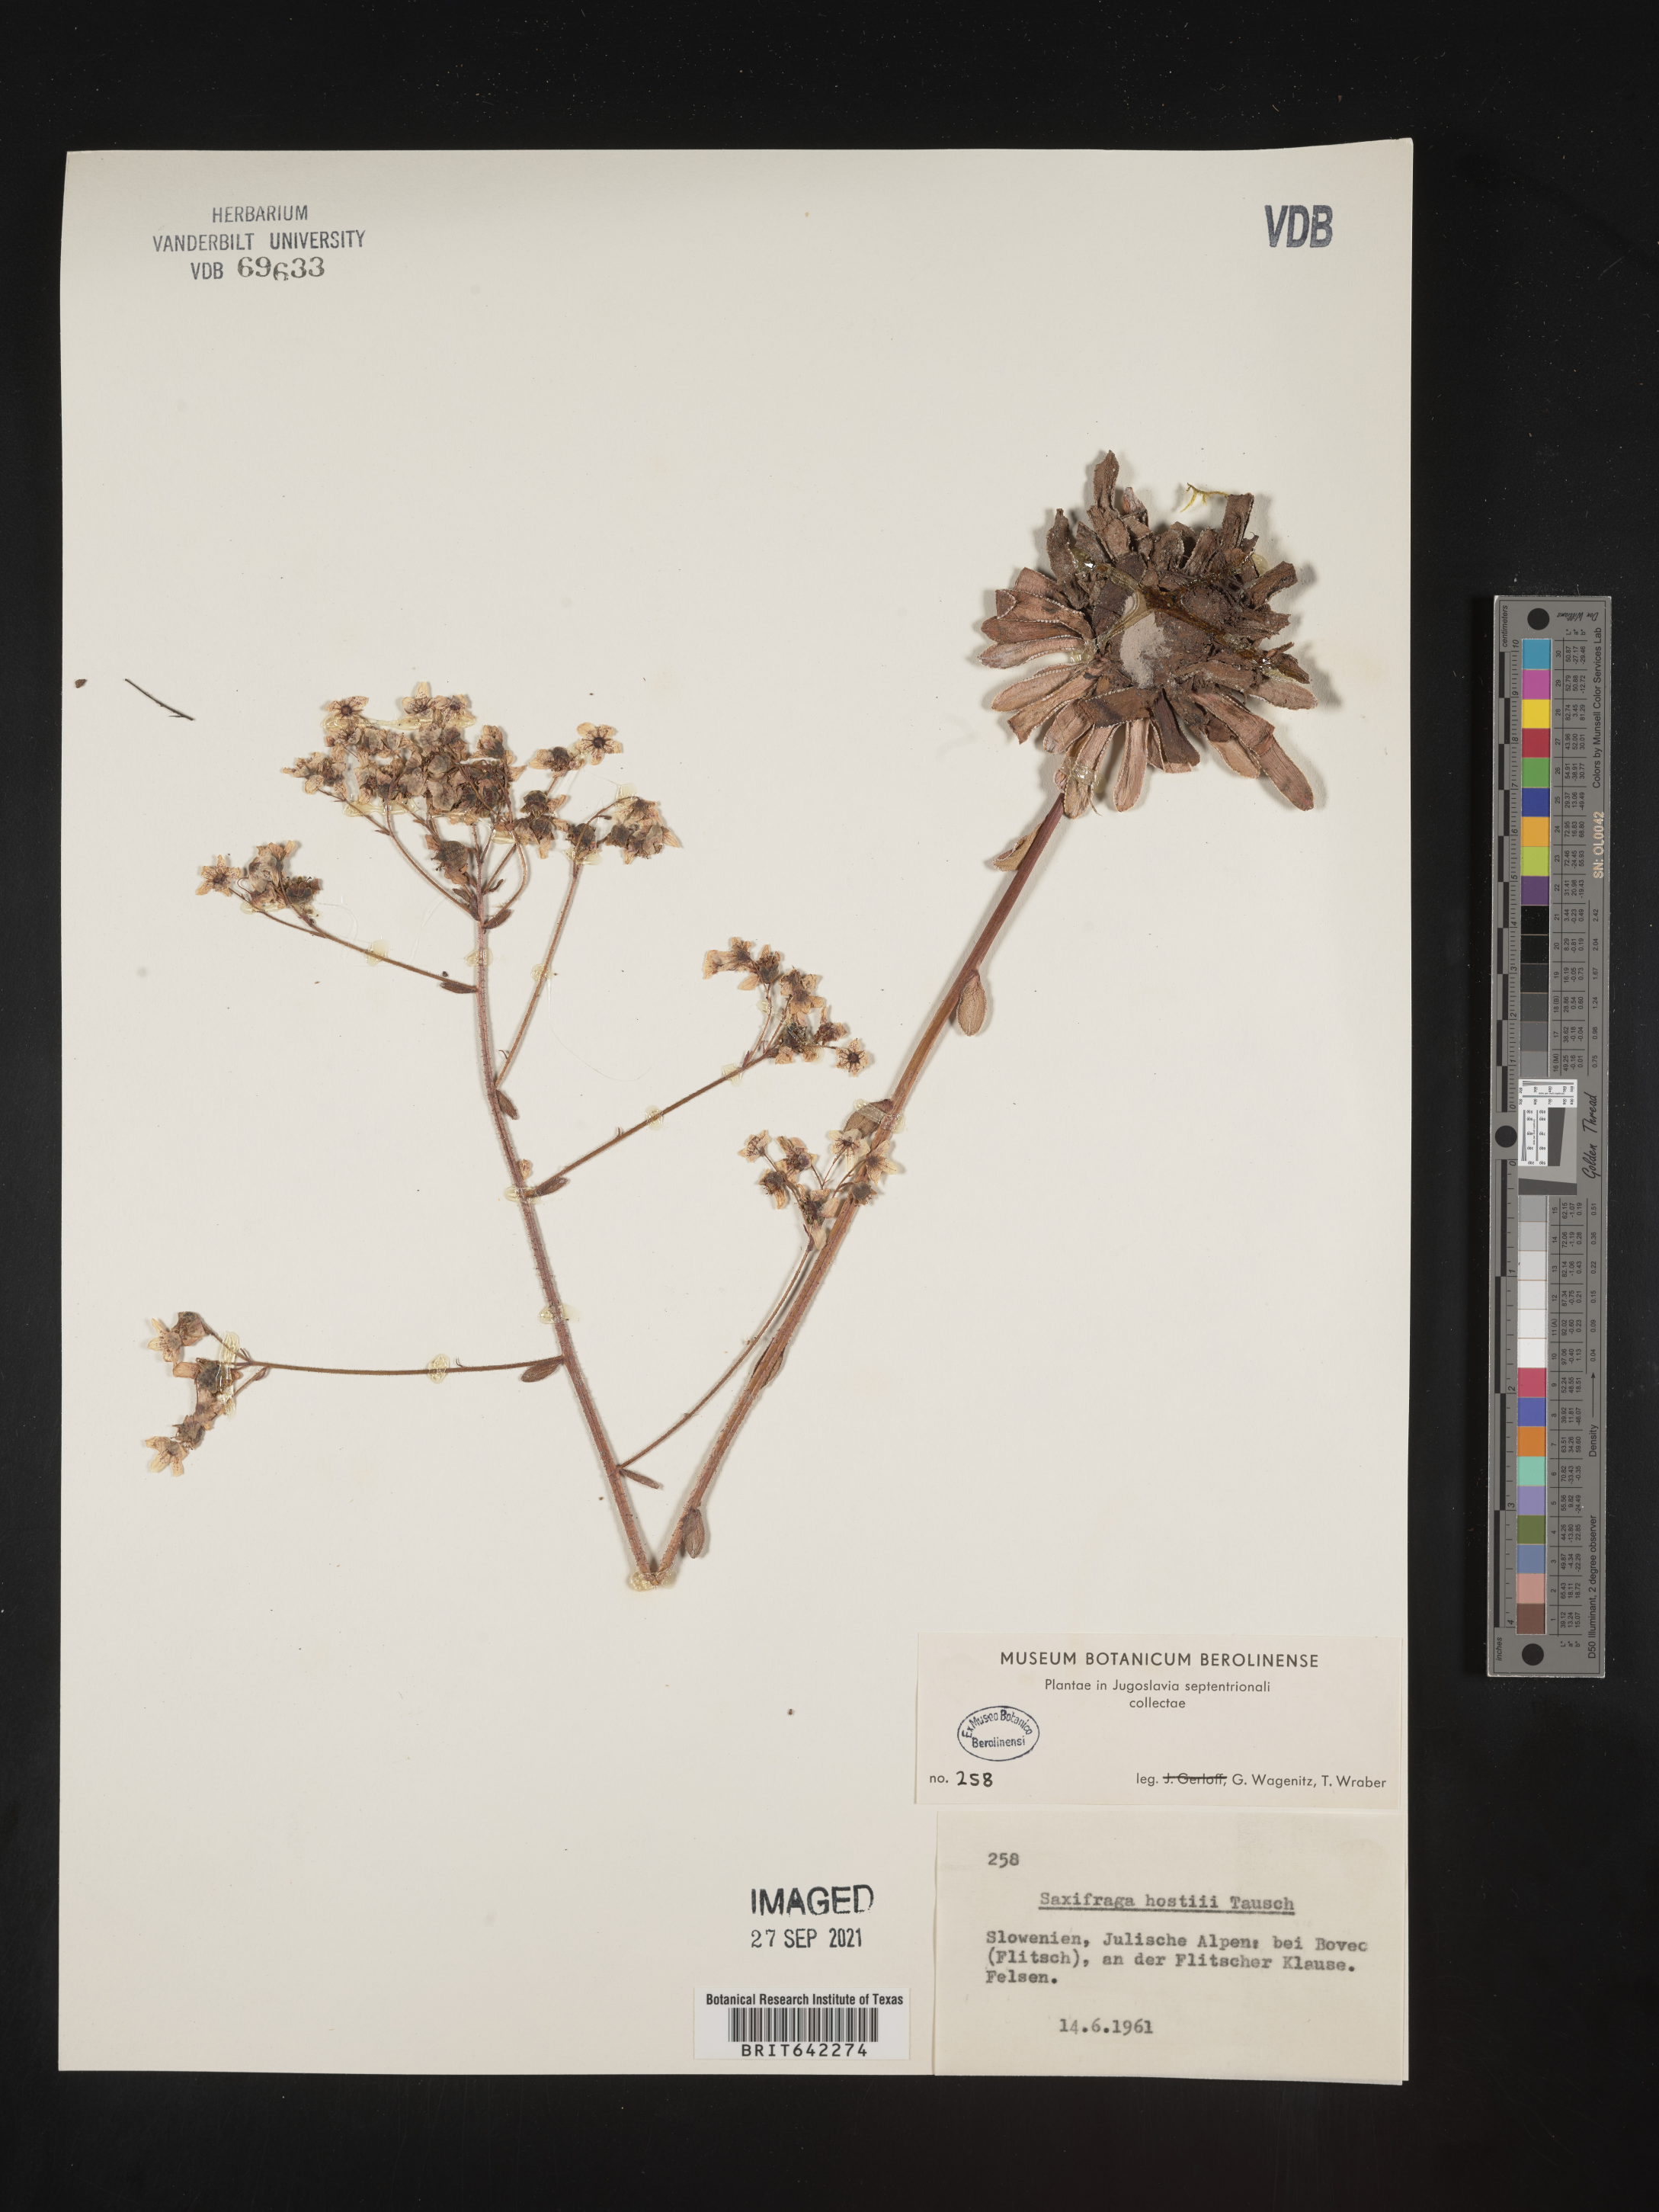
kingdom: Plantae
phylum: Tracheophyta
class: Magnoliopsida
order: Saxifragales
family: Saxifragaceae
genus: Saxifraga
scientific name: Saxifraga
